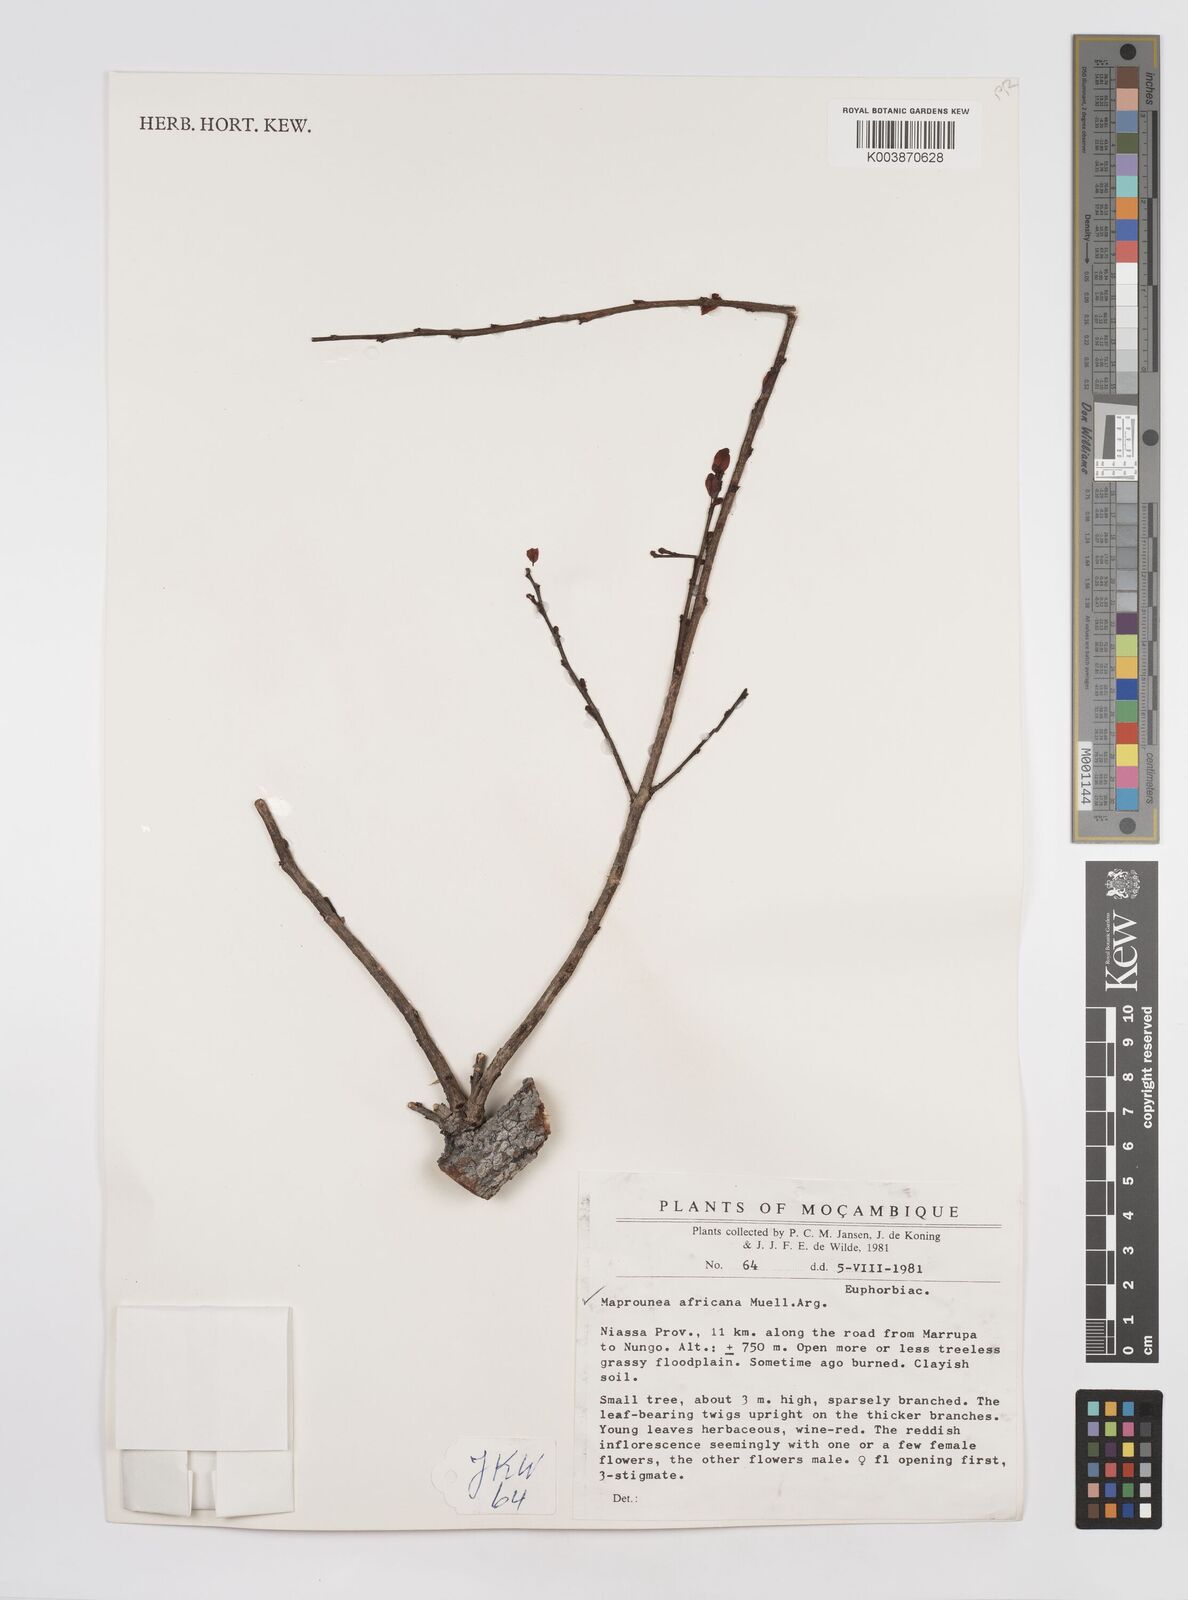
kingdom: Plantae
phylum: Tracheophyta
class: Magnoliopsida
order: Malpighiales
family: Euphorbiaceae
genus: Maprounea
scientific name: Maprounea africana
